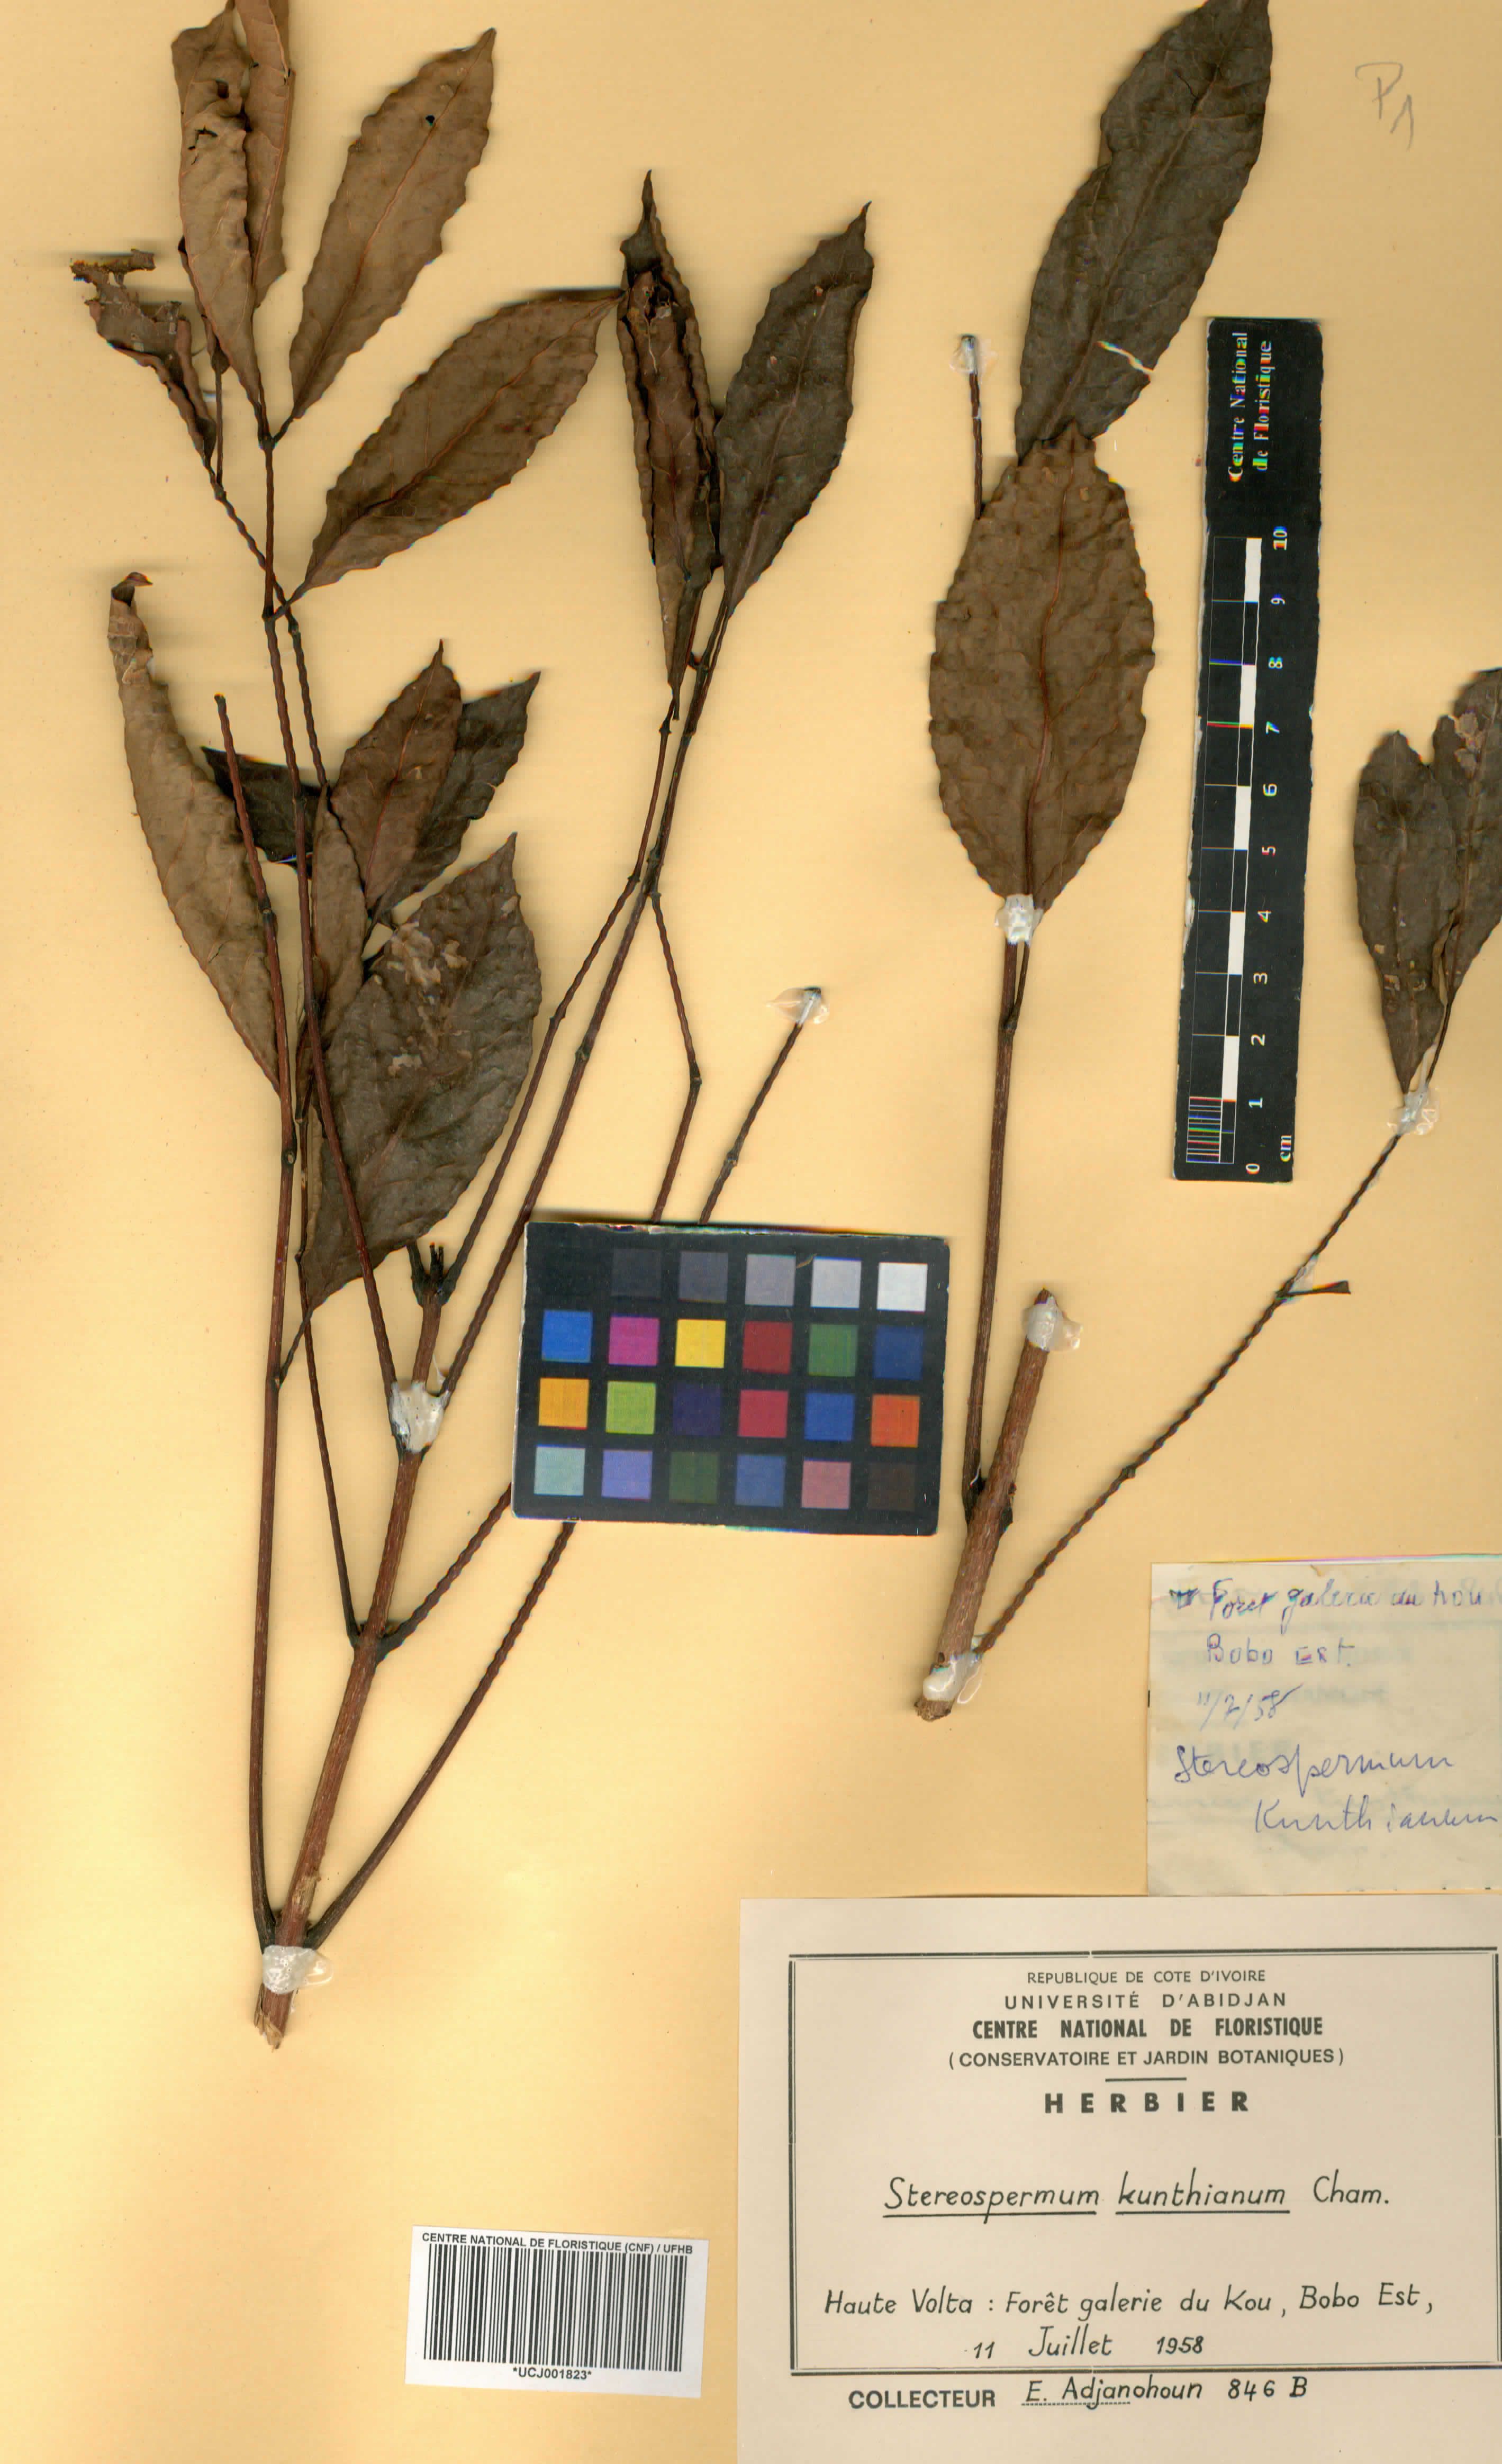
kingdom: Plantae
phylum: Tracheophyta
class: Magnoliopsida
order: Lamiales
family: Bignoniaceae
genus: Stereospermum
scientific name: Stereospermum kunthianum
